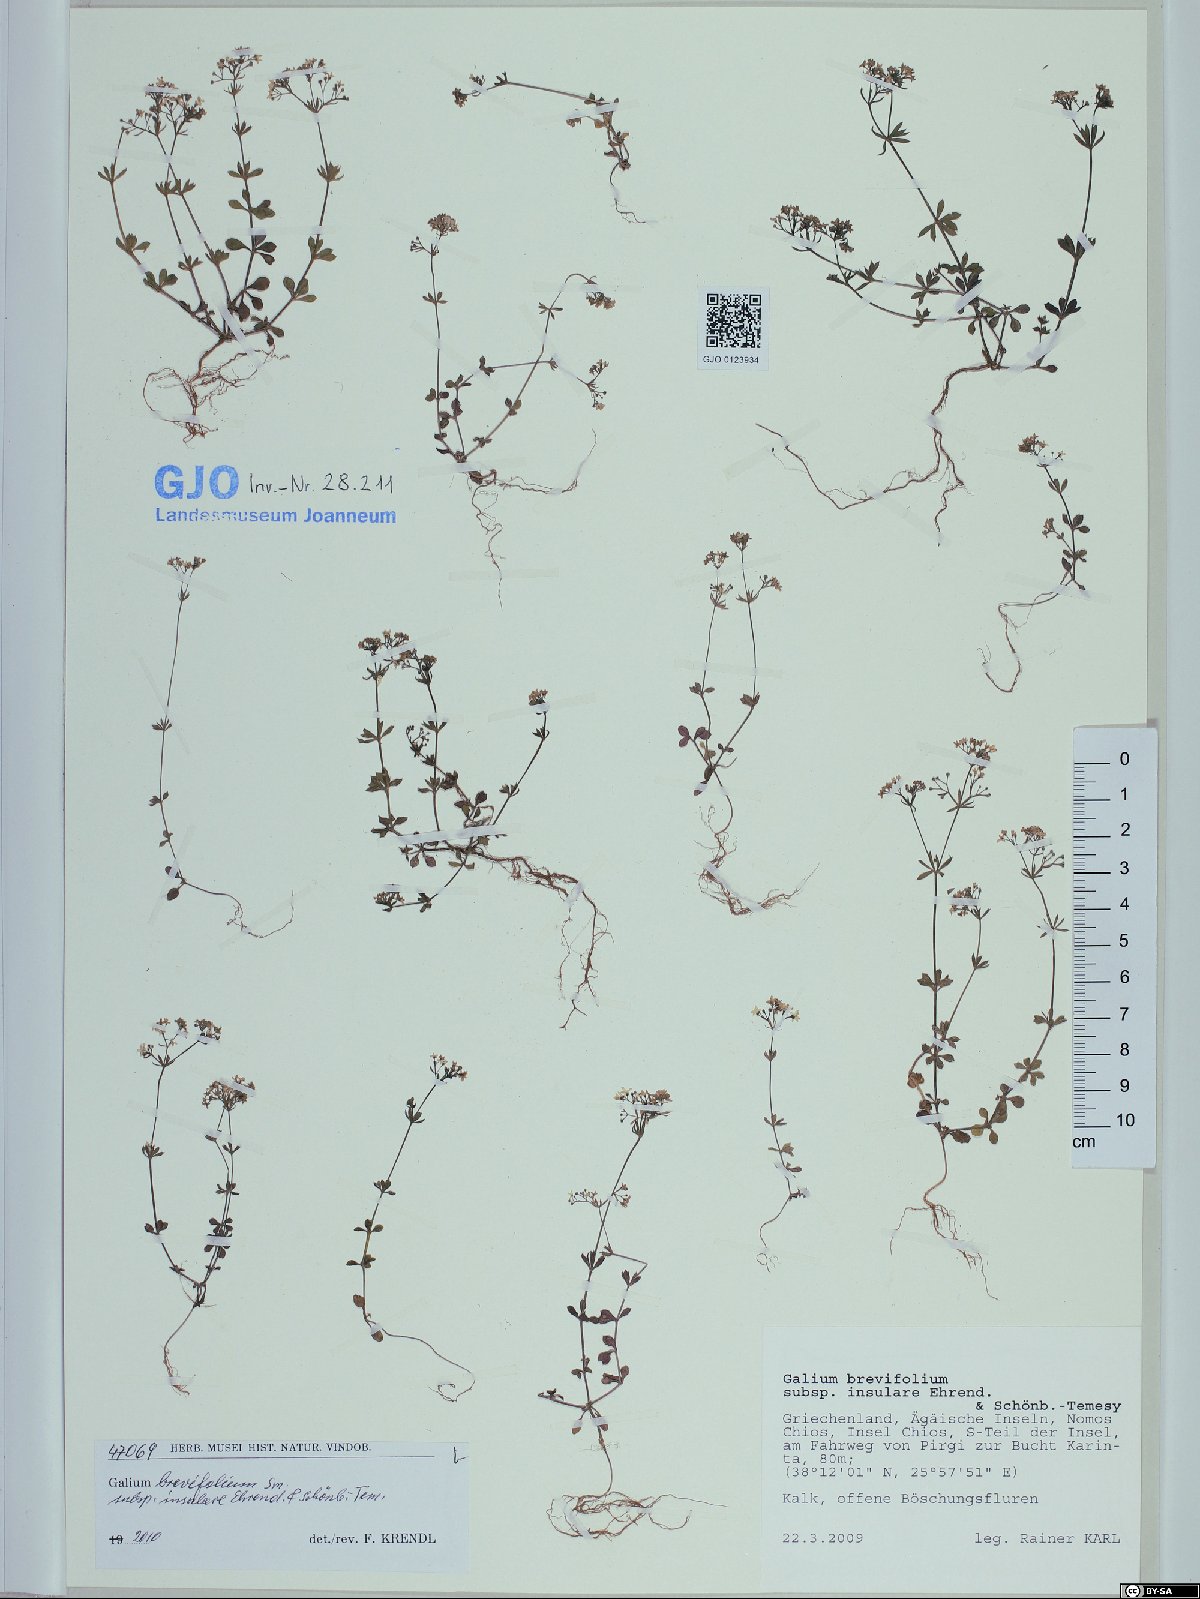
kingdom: Plantae
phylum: Tracheophyta
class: Magnoliopsida
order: Gentianales
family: Rubiaceae
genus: Galium
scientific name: Galium brevifolium
